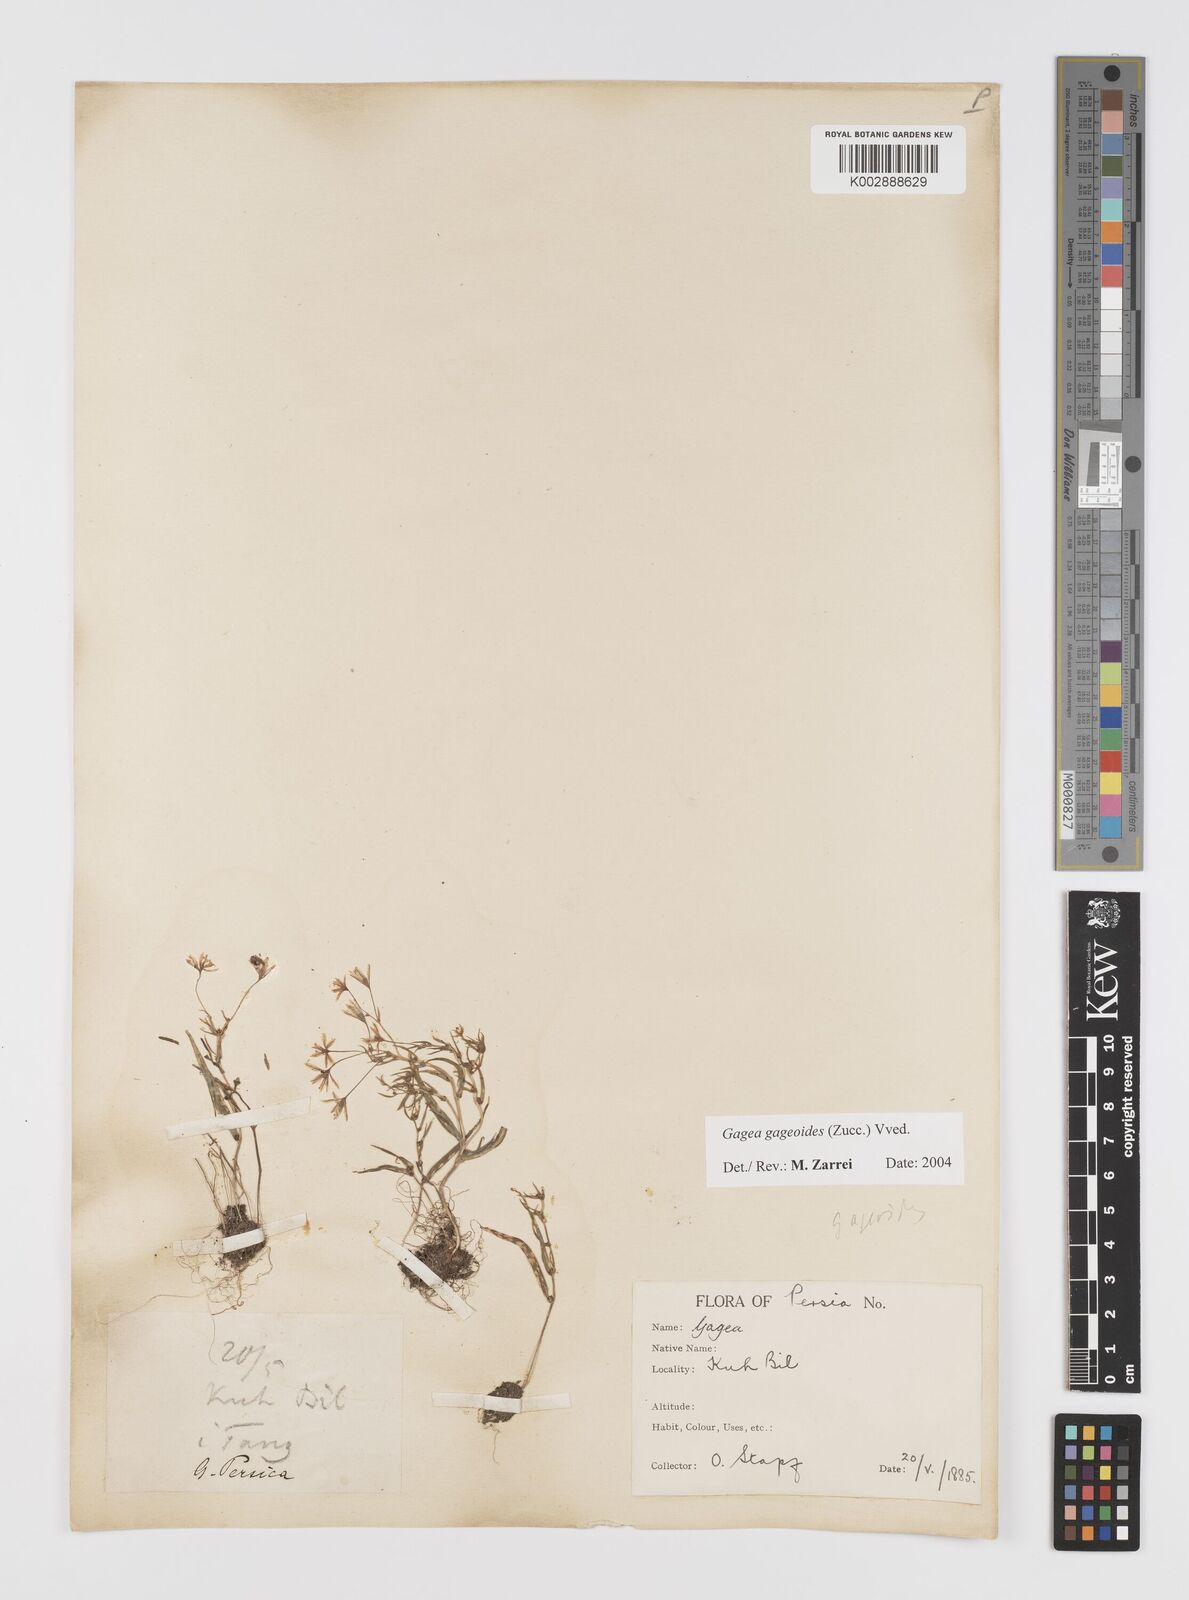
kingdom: Plantae
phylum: Tracheophyta
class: Liliopsida
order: Liliales
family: Liliaceae
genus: Gagea
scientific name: Gagea gageoides
